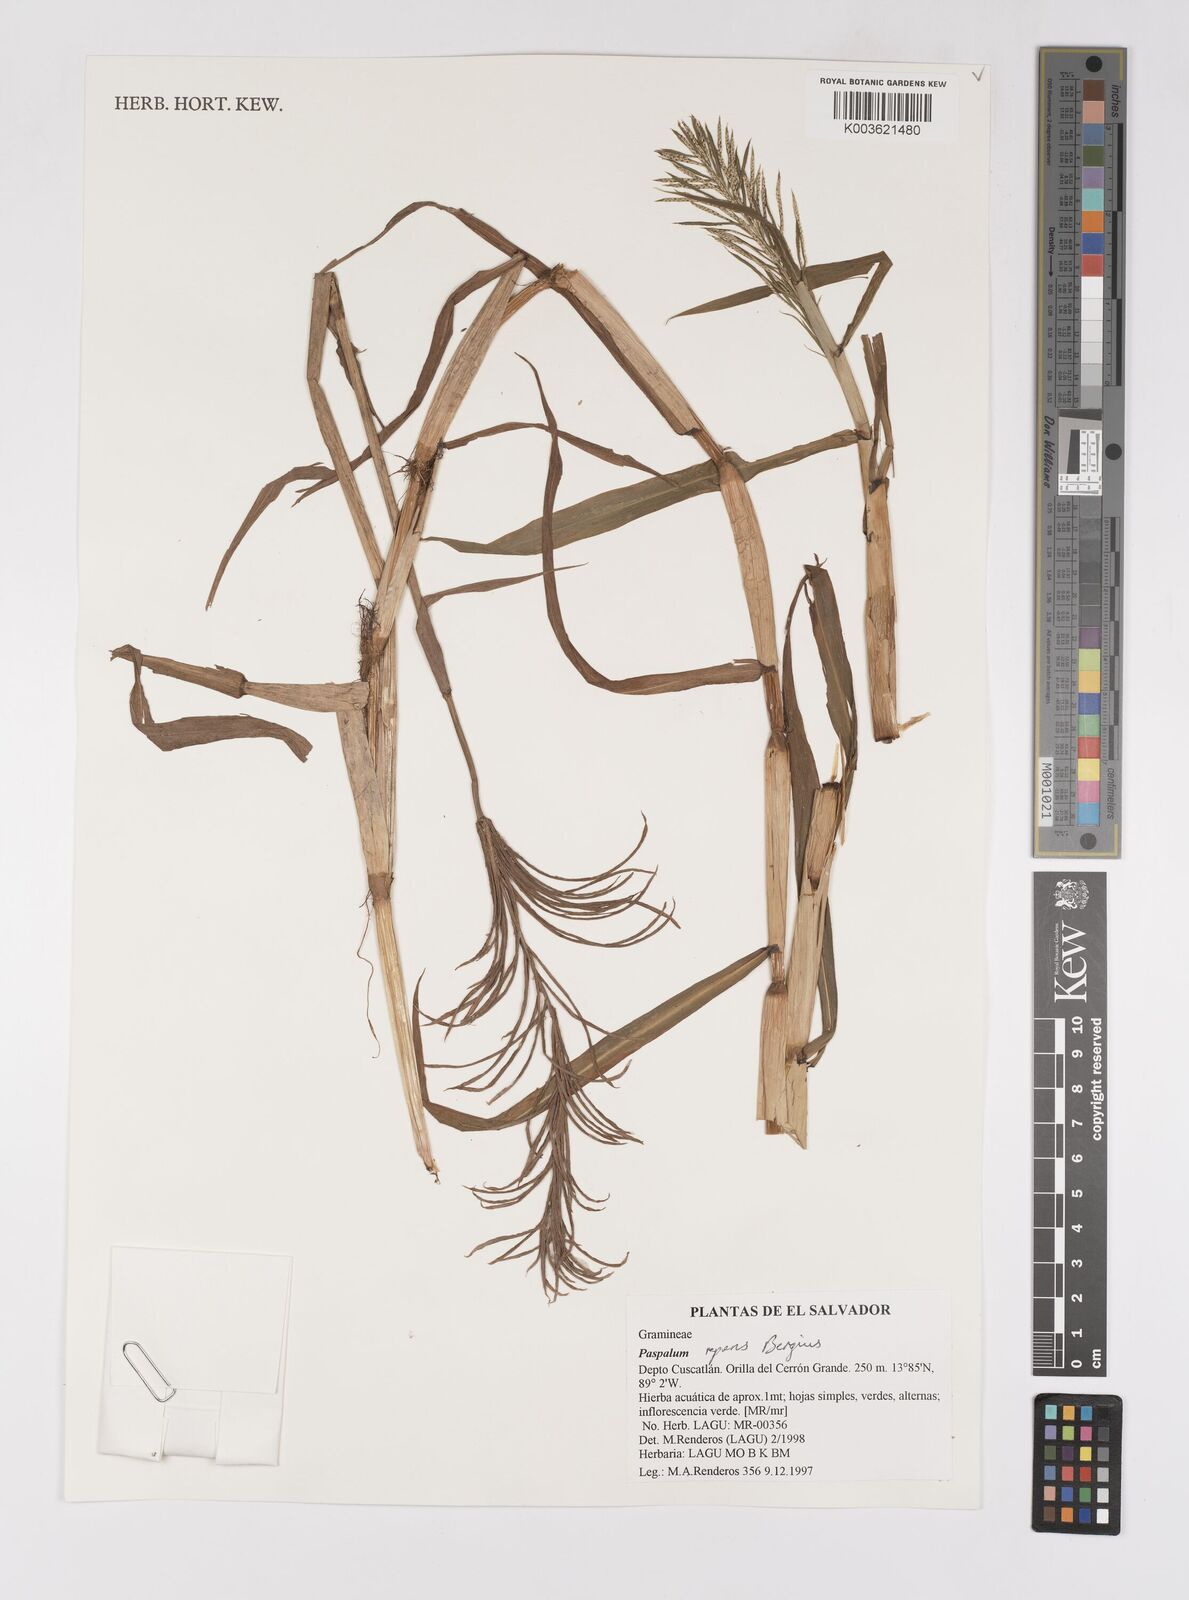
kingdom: Plantae
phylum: Tracheophyta
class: Liliopsida
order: Poales
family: Poaceae
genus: Paspalum
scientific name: Paspalum repens
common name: Water paspalum
